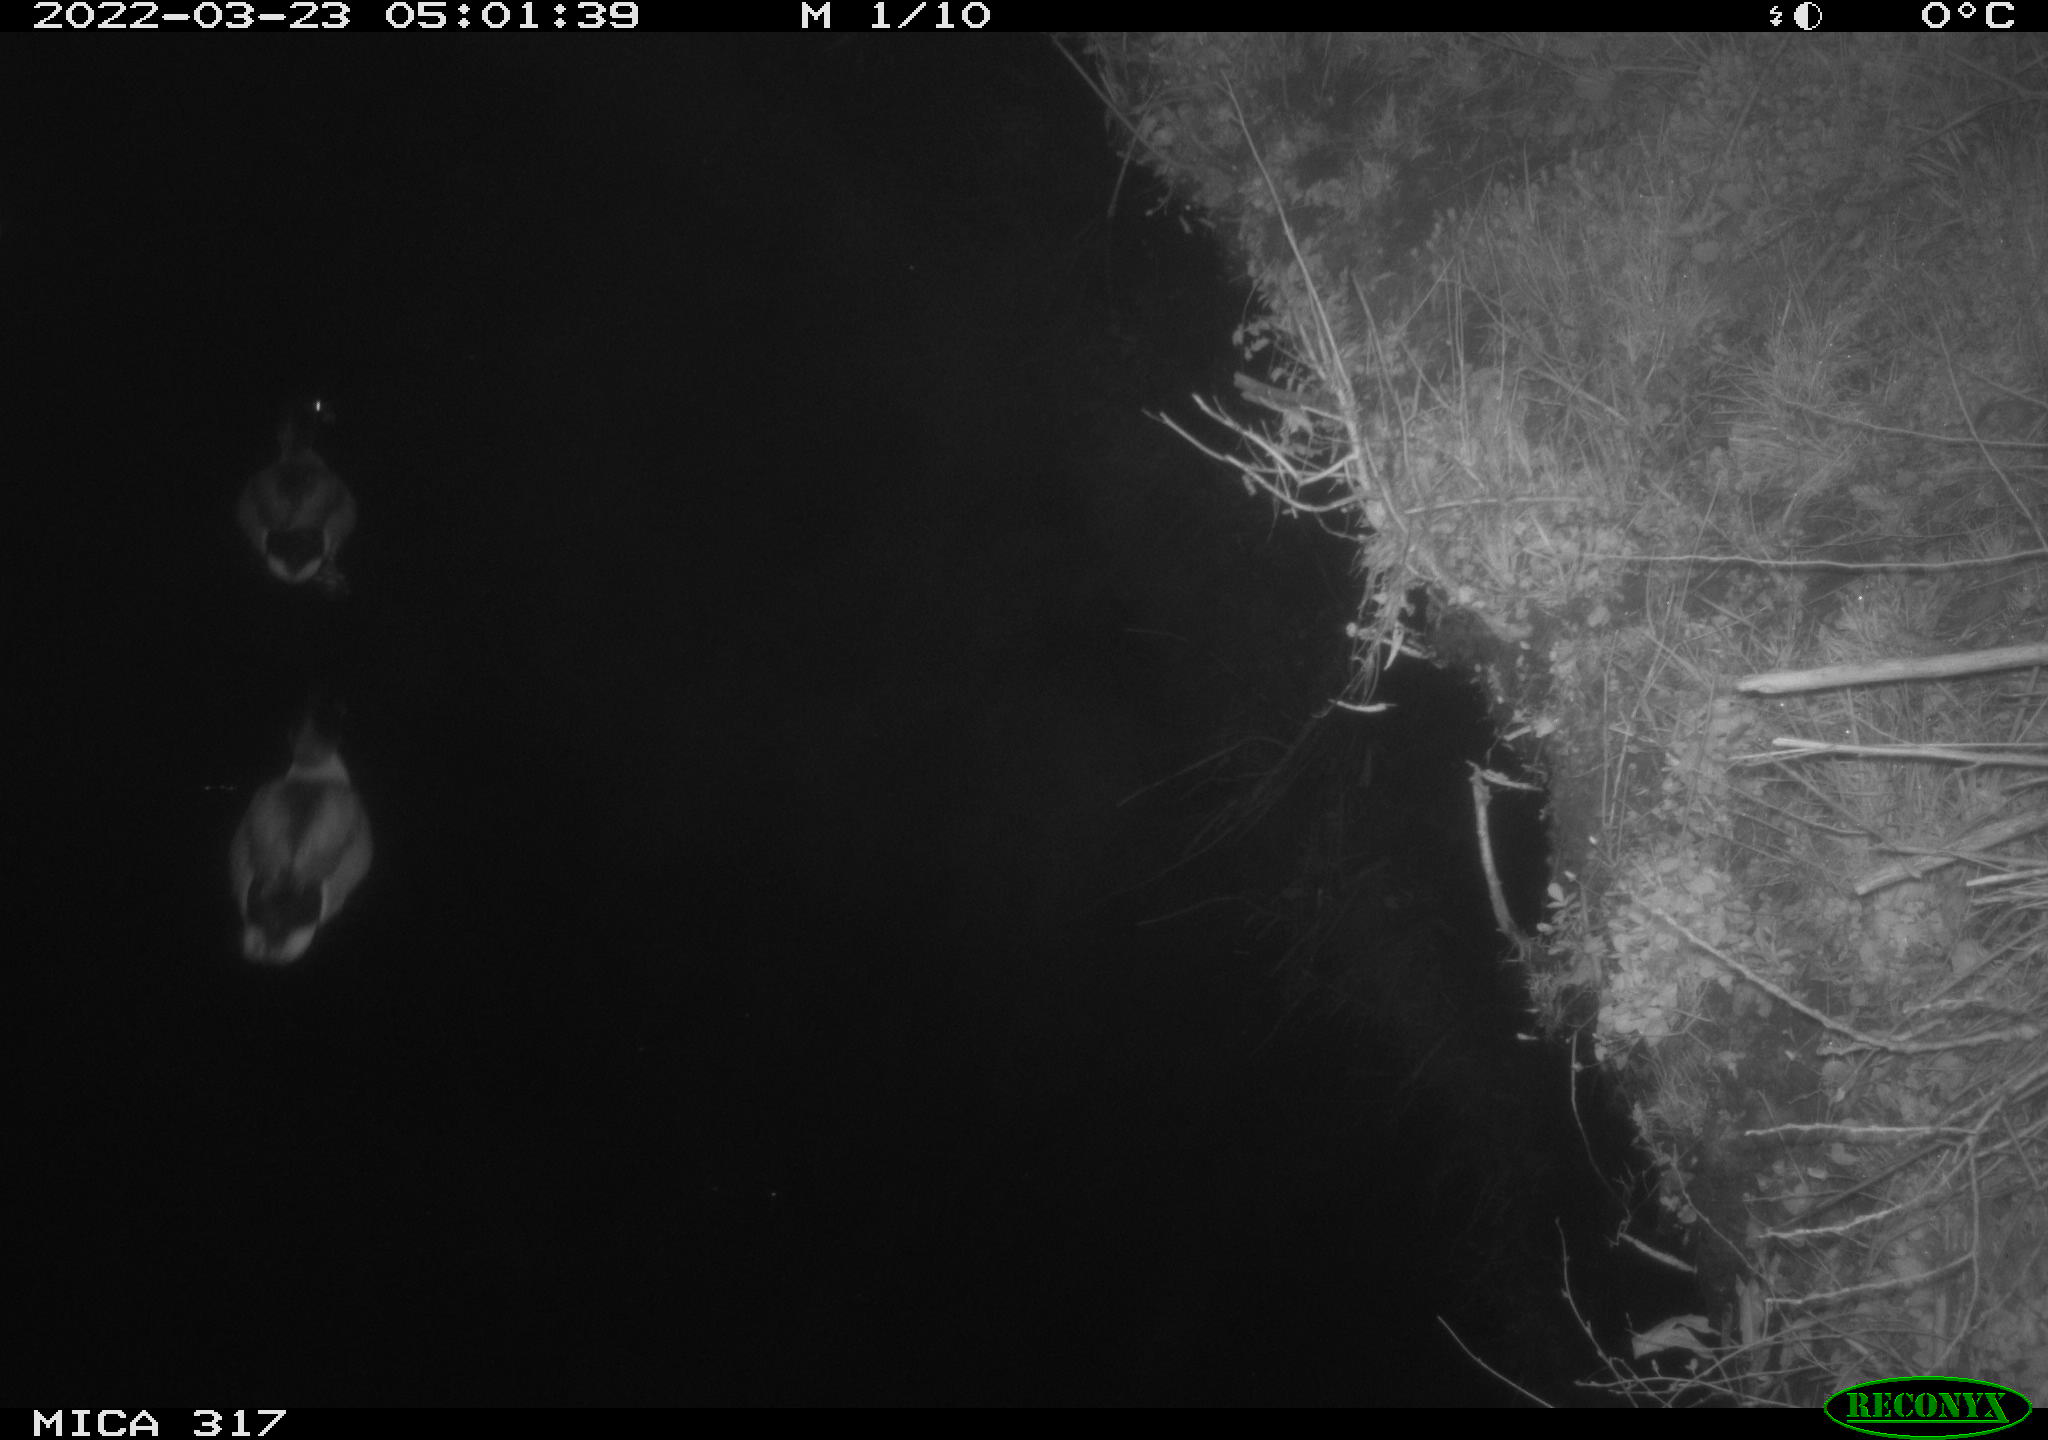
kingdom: Animalia
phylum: Chordata
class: Aves
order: Anseriformes
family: Anatidae
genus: Anas
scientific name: Anas platyrhynchos
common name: Mallard
